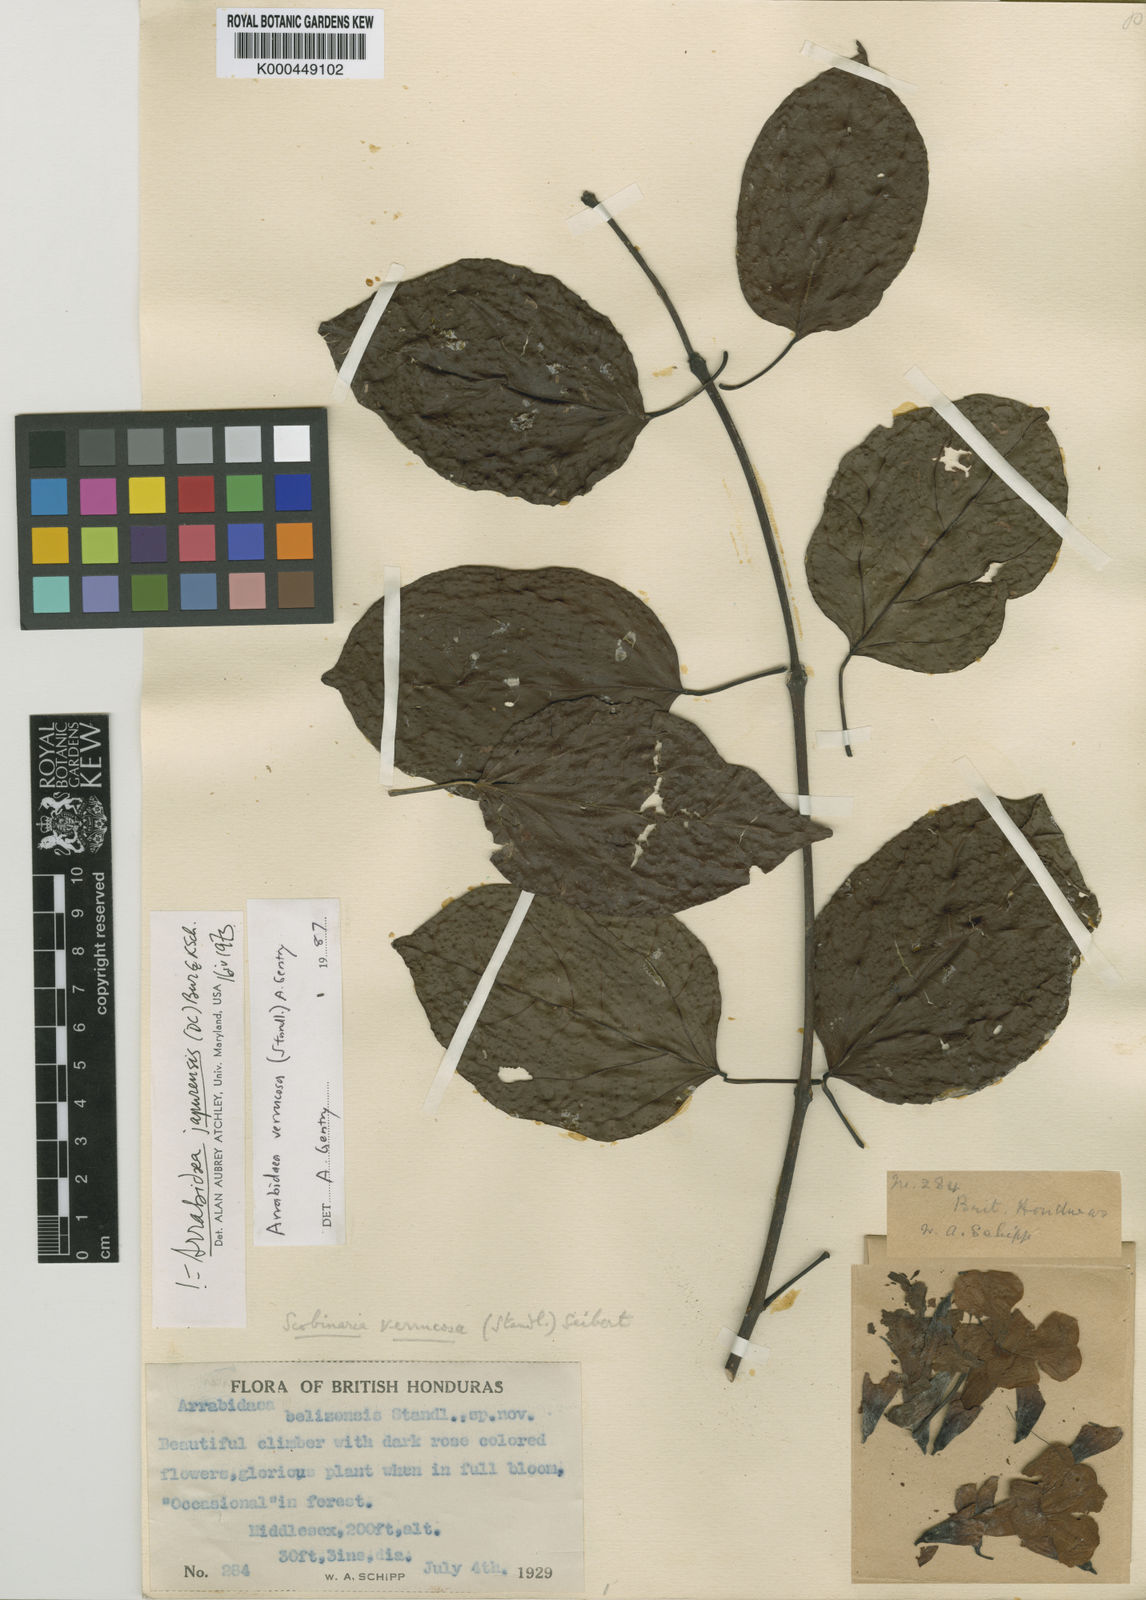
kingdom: Plantae
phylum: Tracheophyta
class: Magnoliopsida
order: Rosales
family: Rhamnaceae
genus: Arrabidaea
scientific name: Arrabidaea
